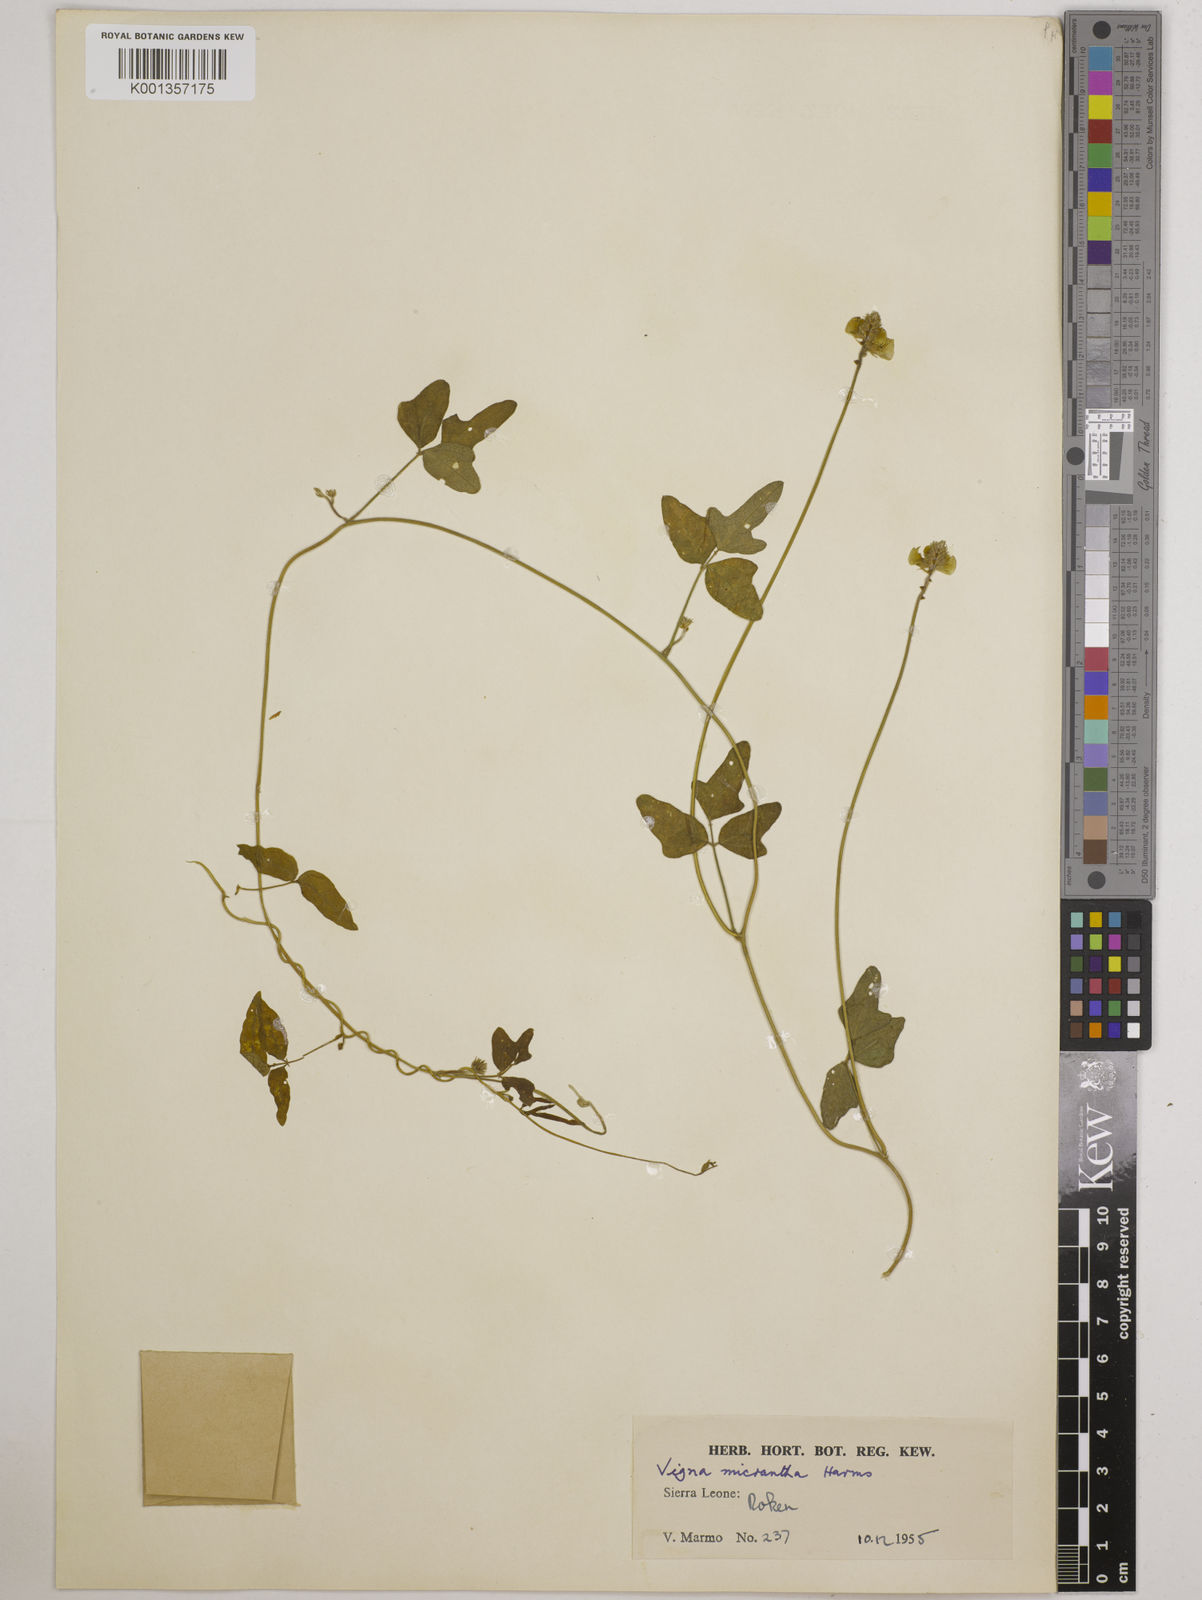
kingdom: Plantae
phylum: Tracheophyta
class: Magnoliopsida
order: Fabales
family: Fabaceae
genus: Vigna
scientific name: Vigna comosa
